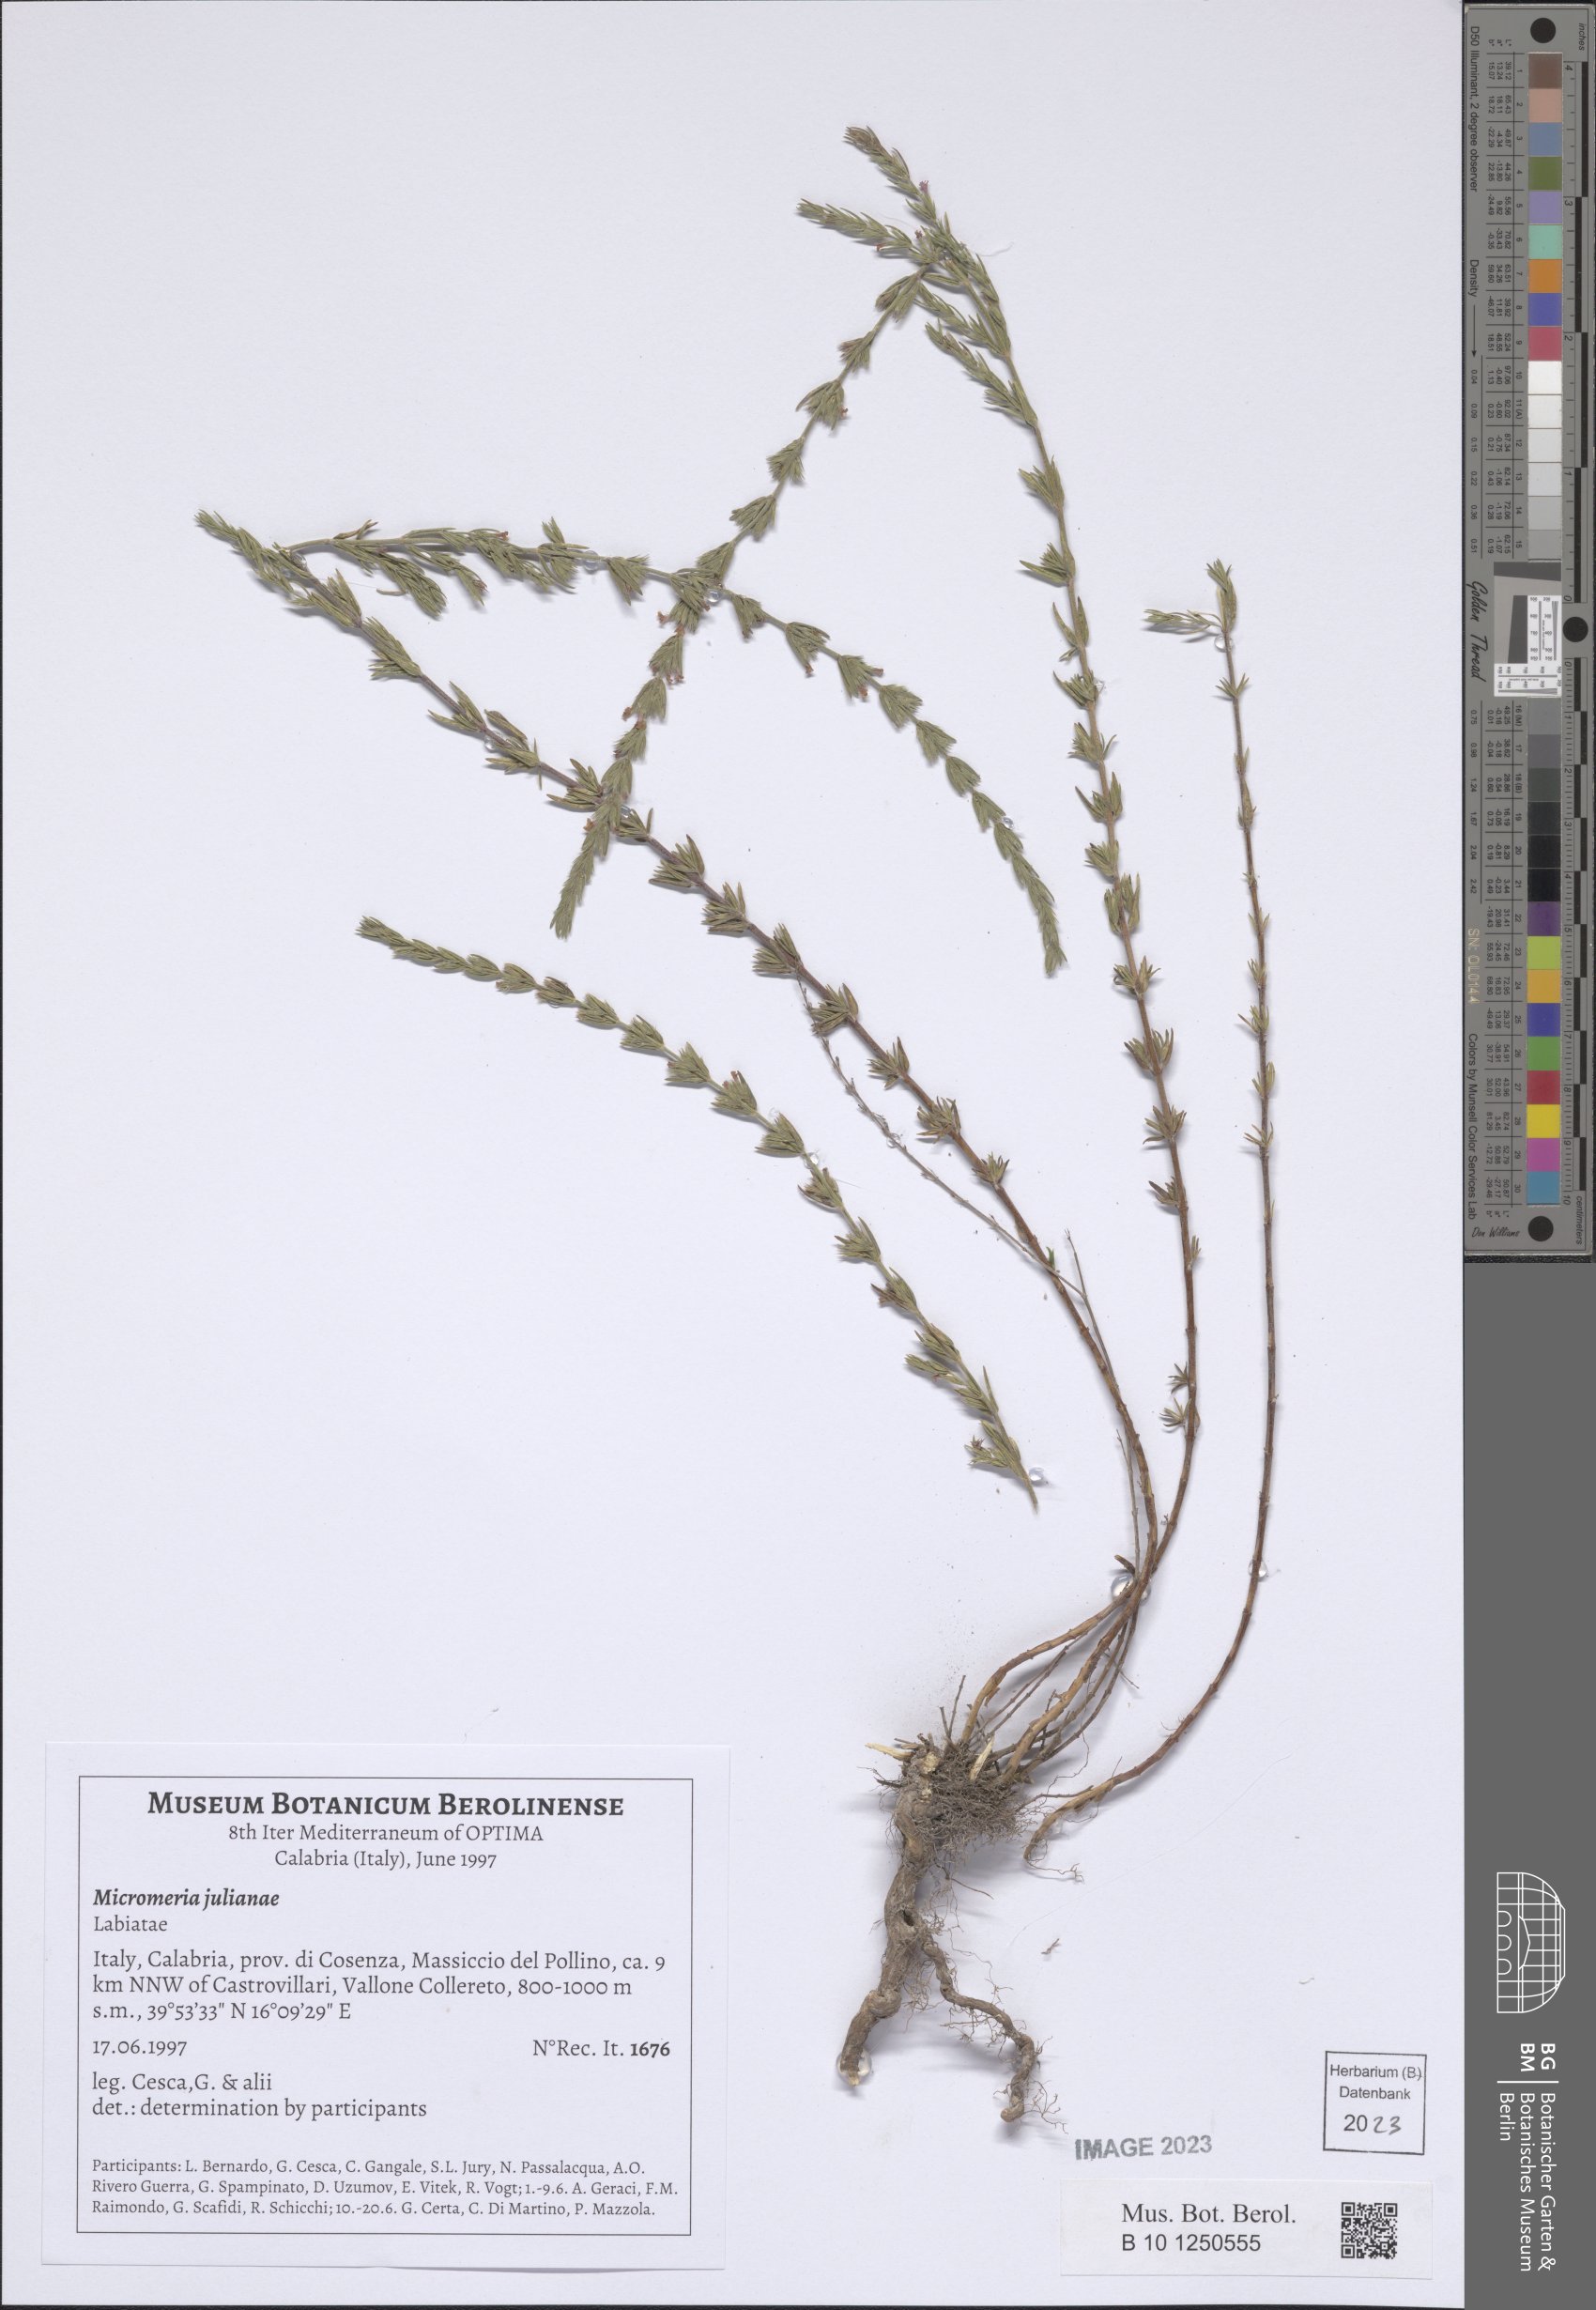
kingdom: Plantae
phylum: Tracheophyta
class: Magnoliopsida
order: Lamiales
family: Lamiaceae
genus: Micromeria
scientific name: Micromeria juliana
